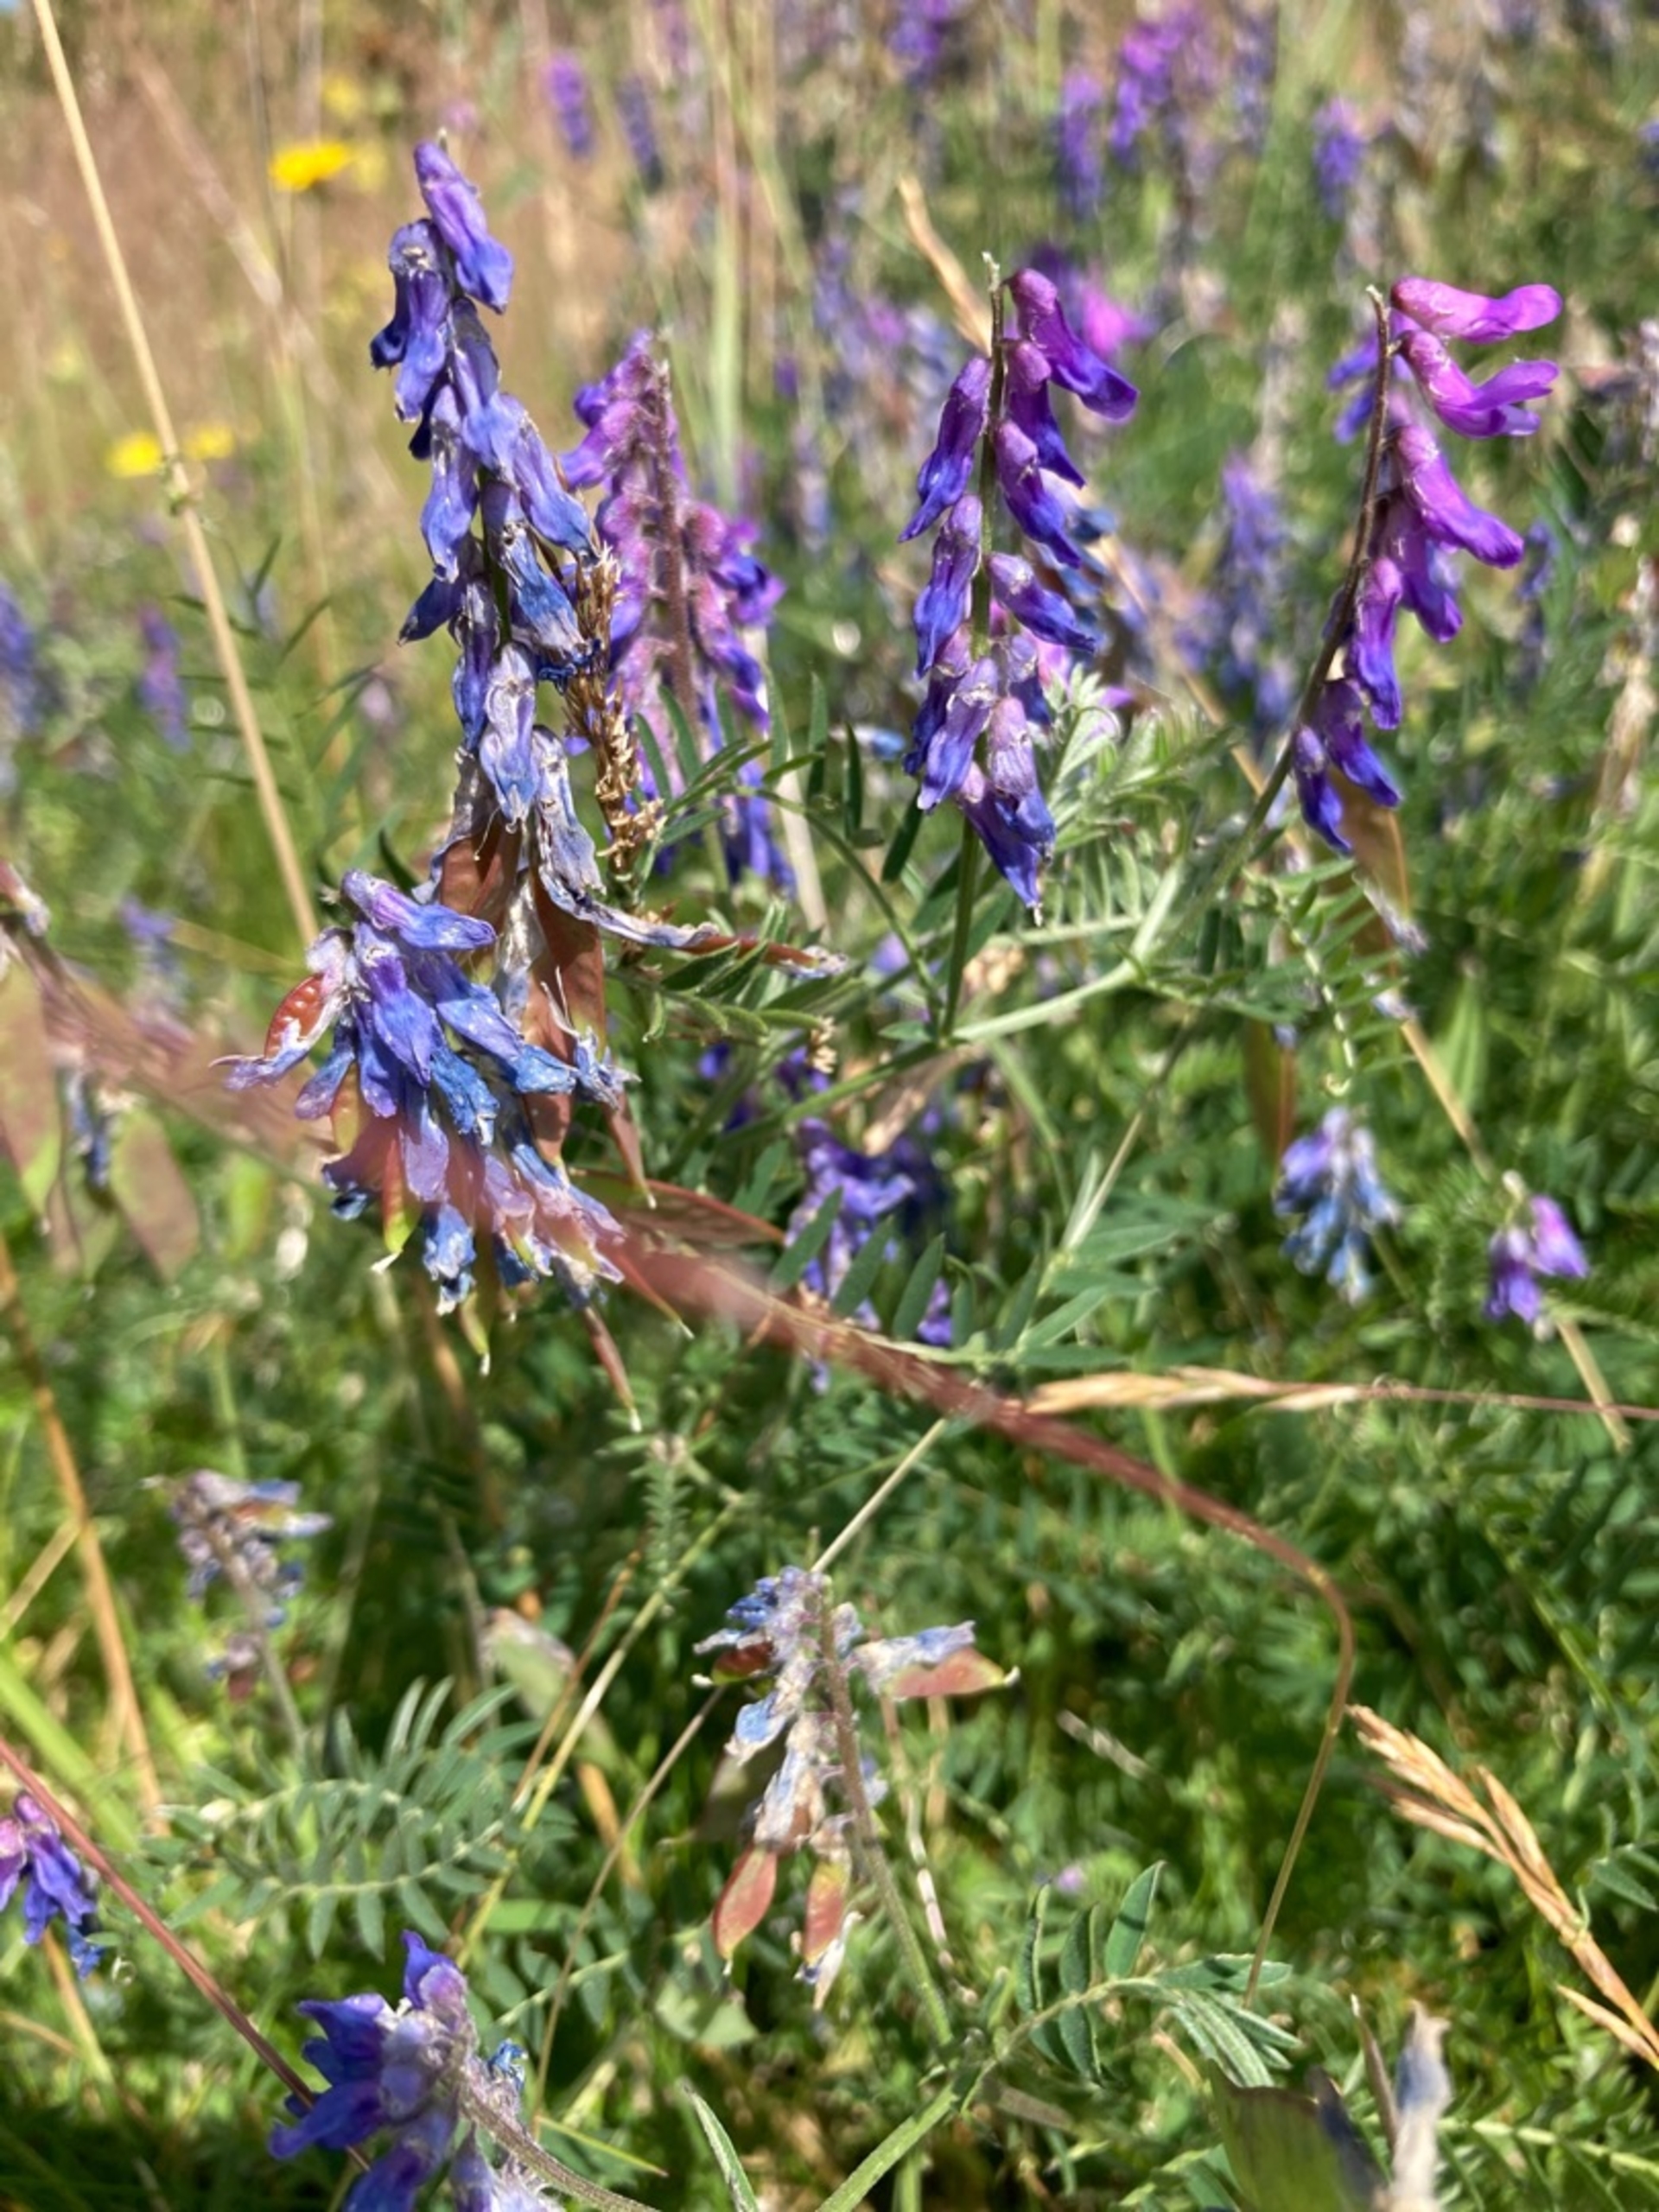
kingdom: Plantae
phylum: Tracheophyta
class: Magnoliopsida
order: Fabales
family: Fabaceae
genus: Vicia
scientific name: Vicia cracca
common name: Muse-vikke
